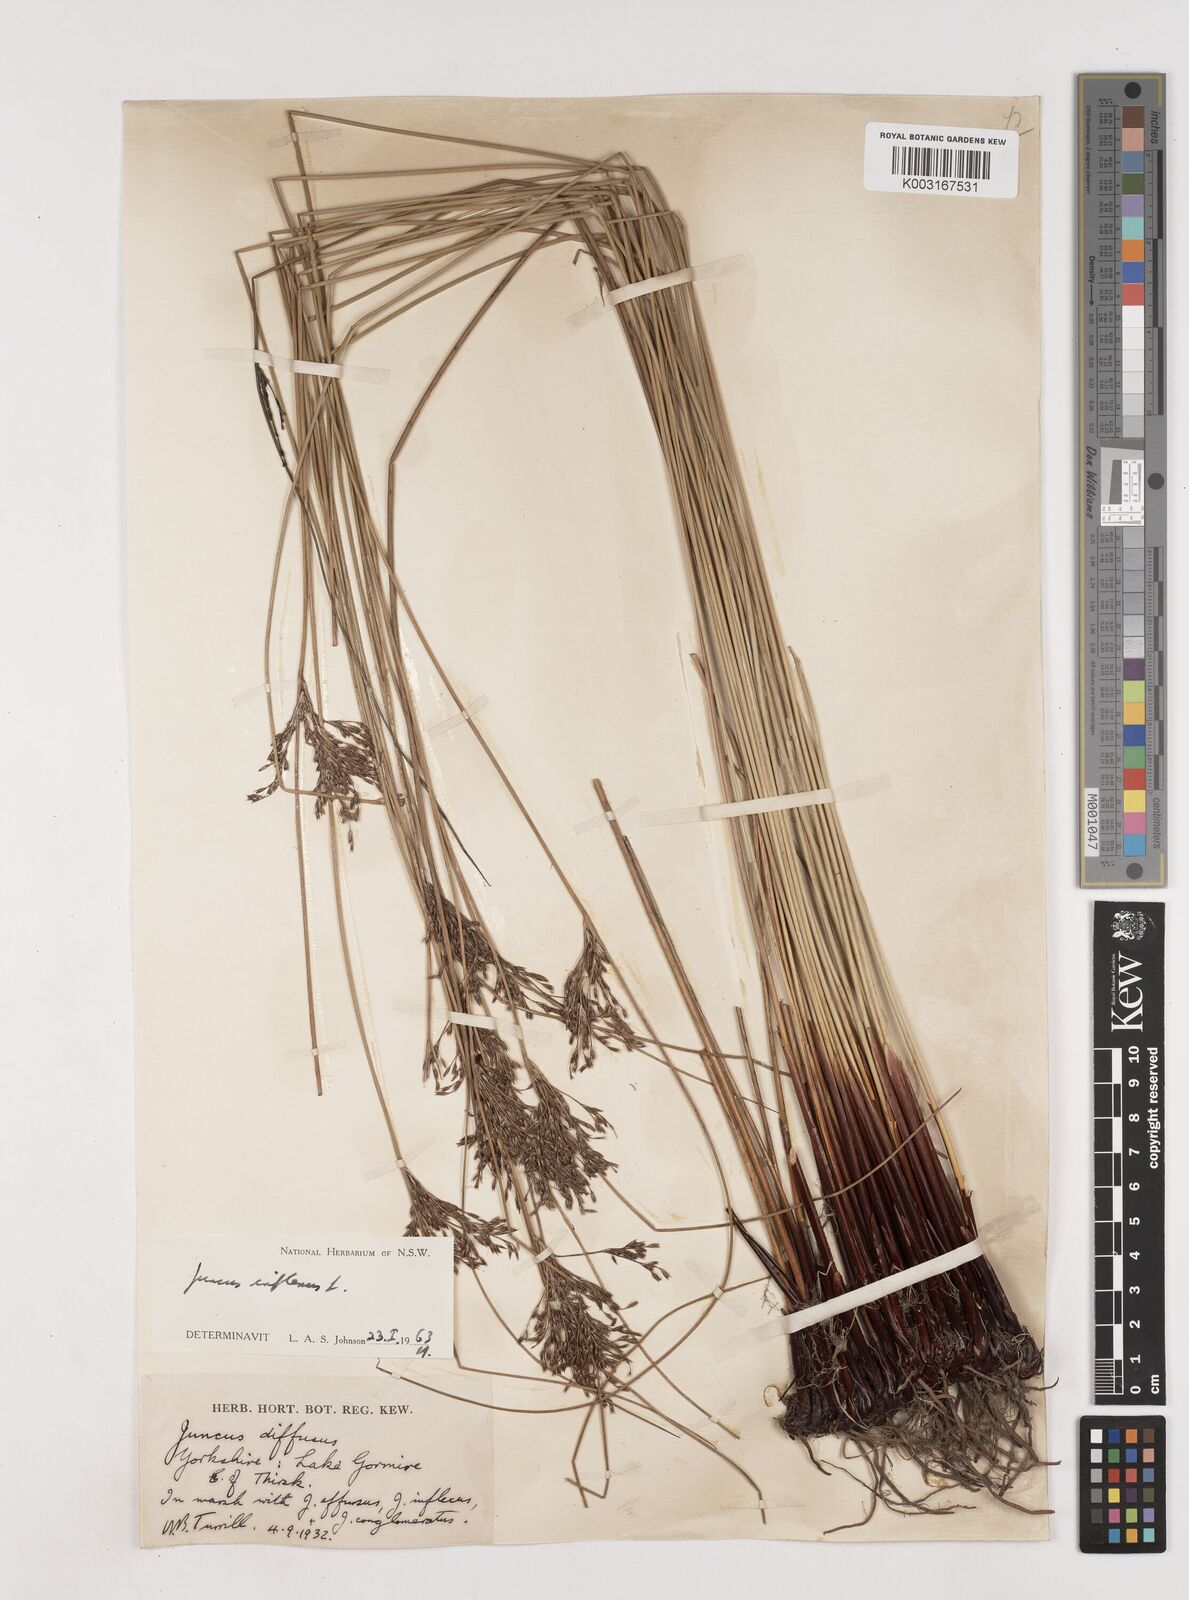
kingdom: Plantae
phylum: Tracheophyta
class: Liliopsida
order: Poales
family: Juncaceae
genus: Juncus
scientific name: Juncus inflexus
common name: Hard rush
